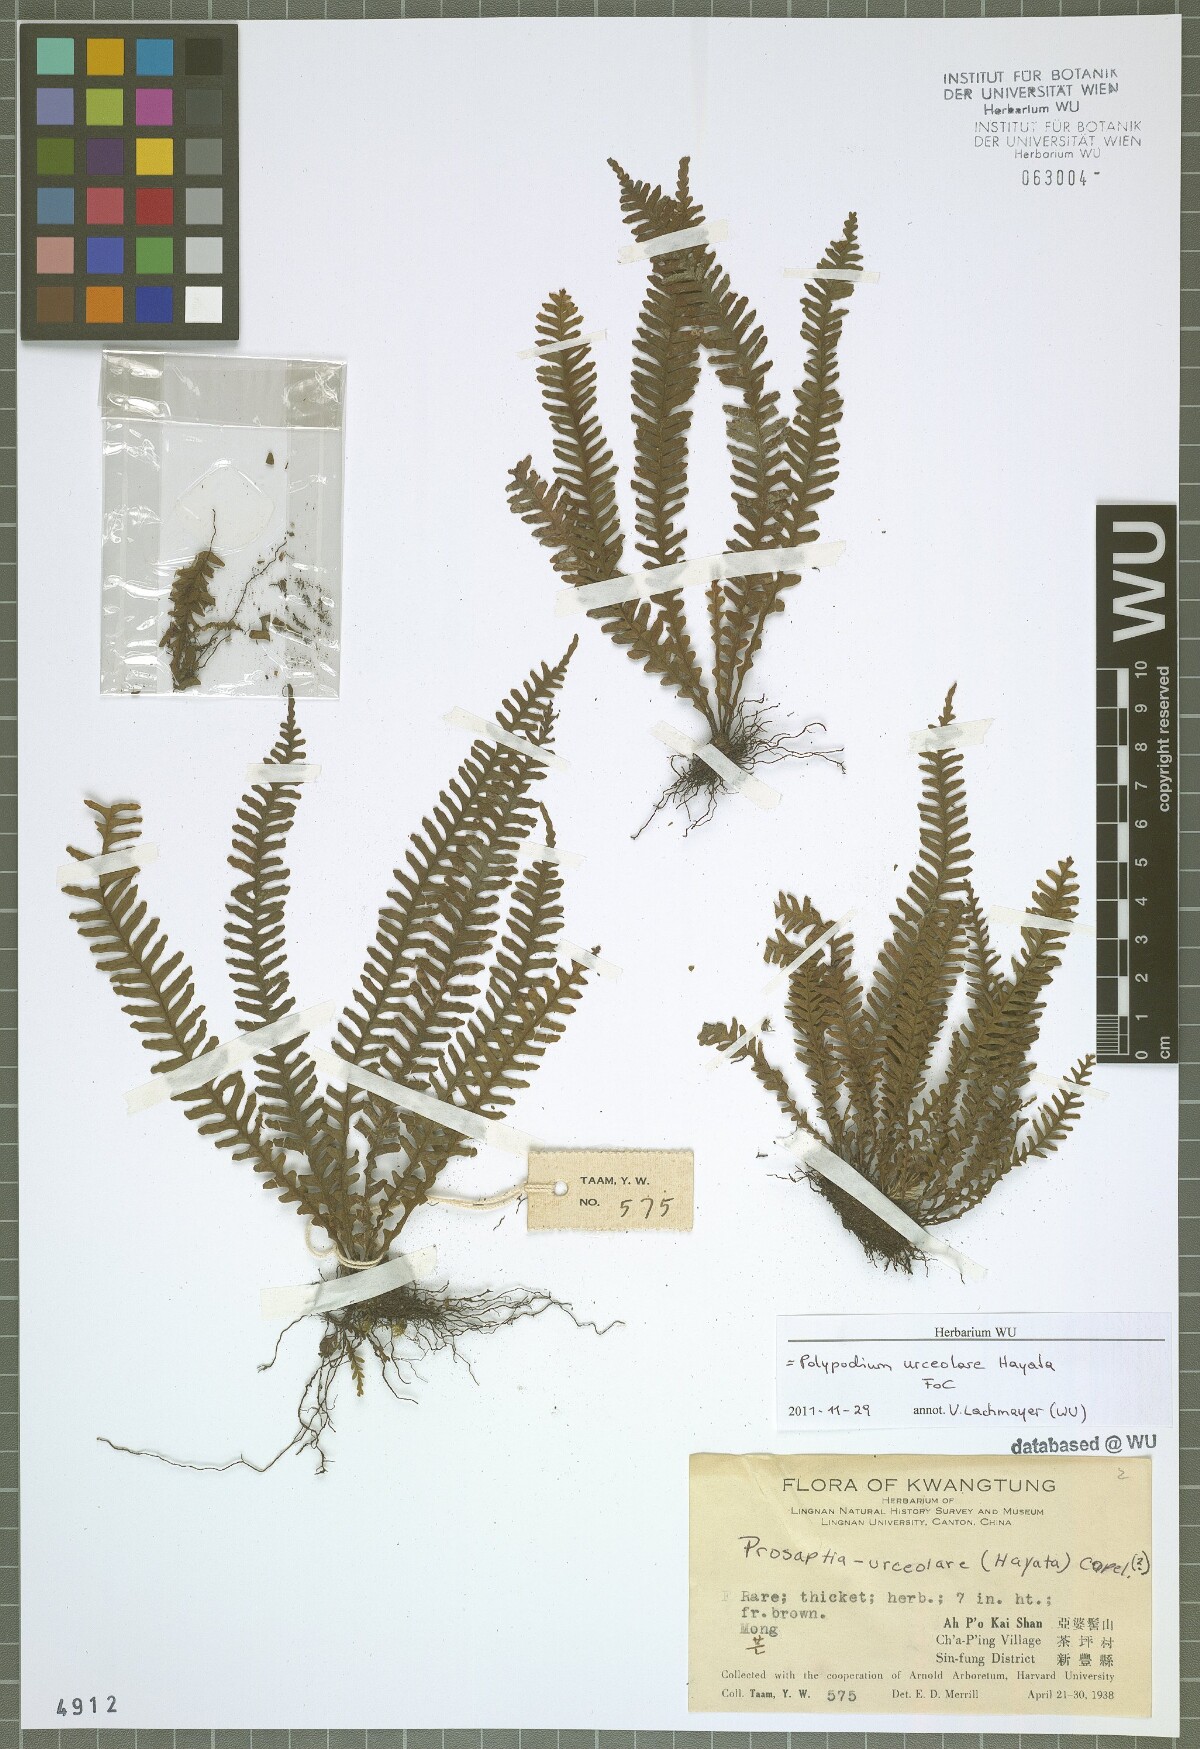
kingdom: Plantae
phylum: Tracheophyta
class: Polypodiopsida
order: Polypodiales
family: Polypodiaceae
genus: Prosaptia
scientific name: Prosaptia urceolaris
